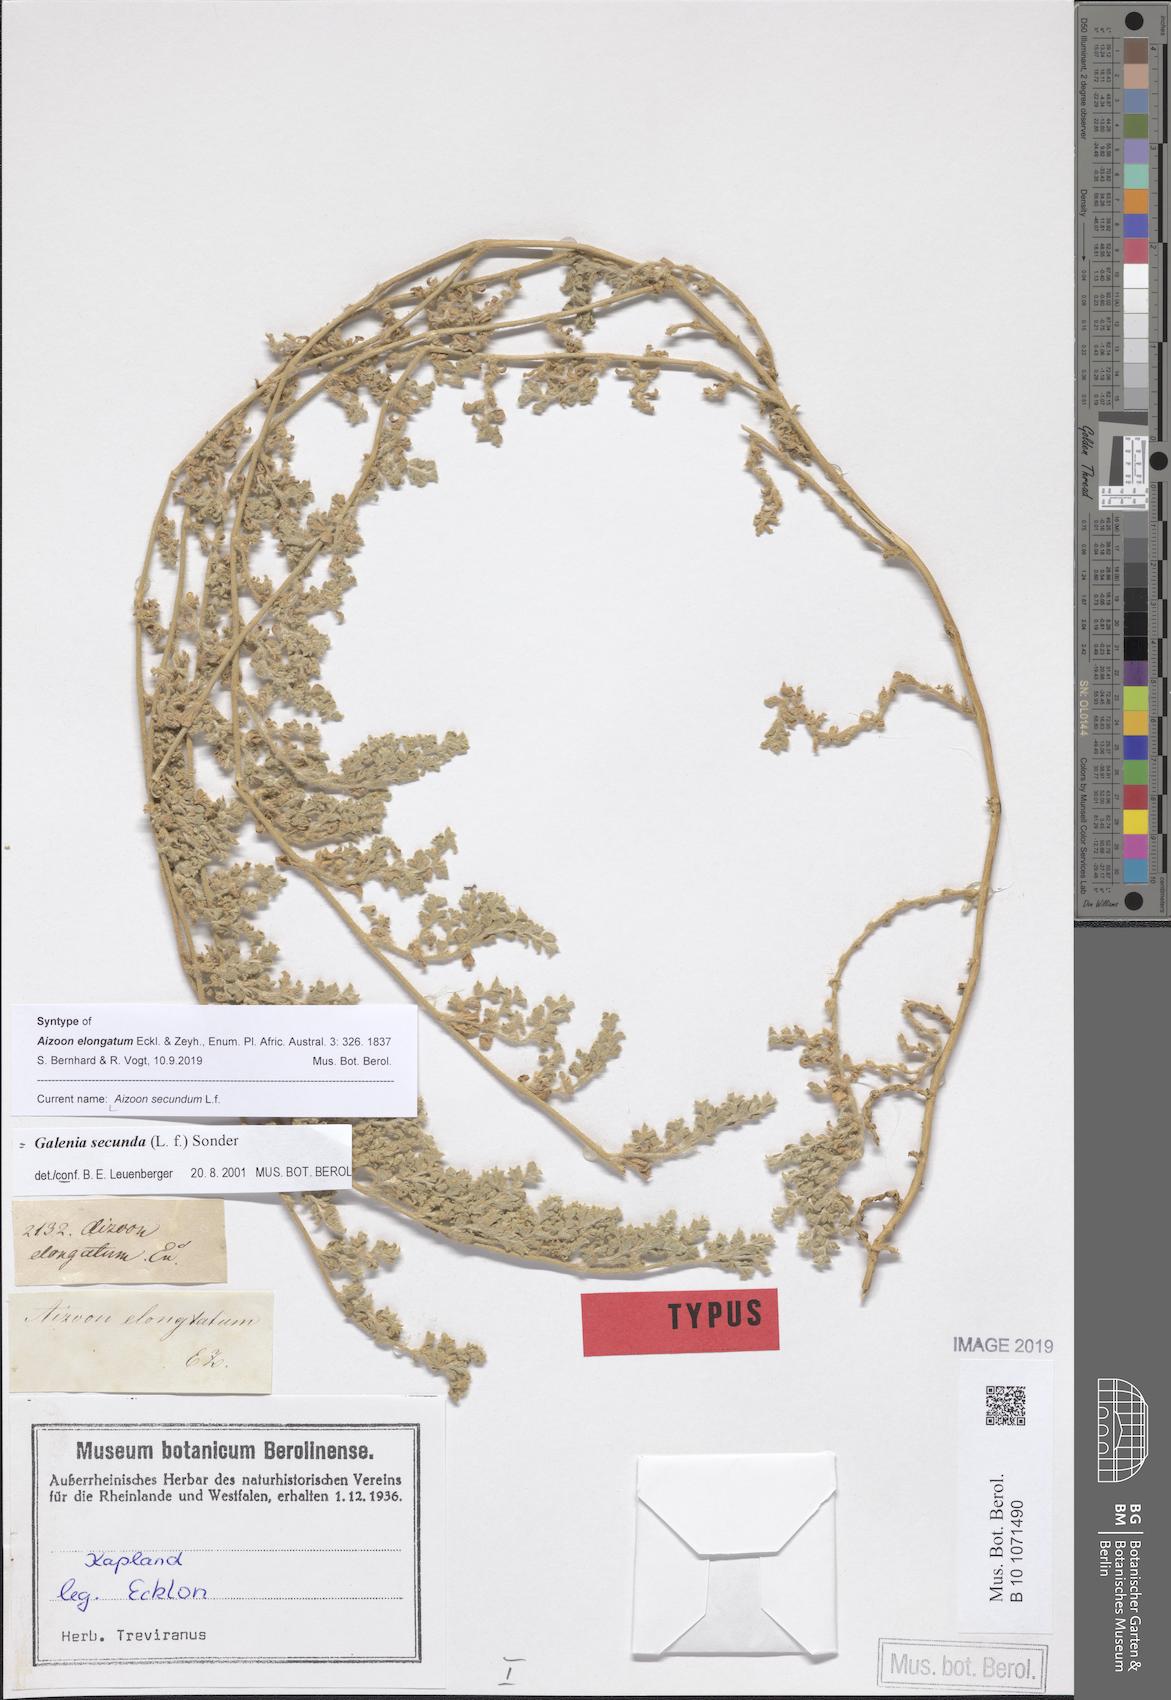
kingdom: Plantae
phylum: Tracheophyta
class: Magnoliopsida
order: Caryophyllales
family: Aizoaceae
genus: Aizoon
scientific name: Aizoon secundum
